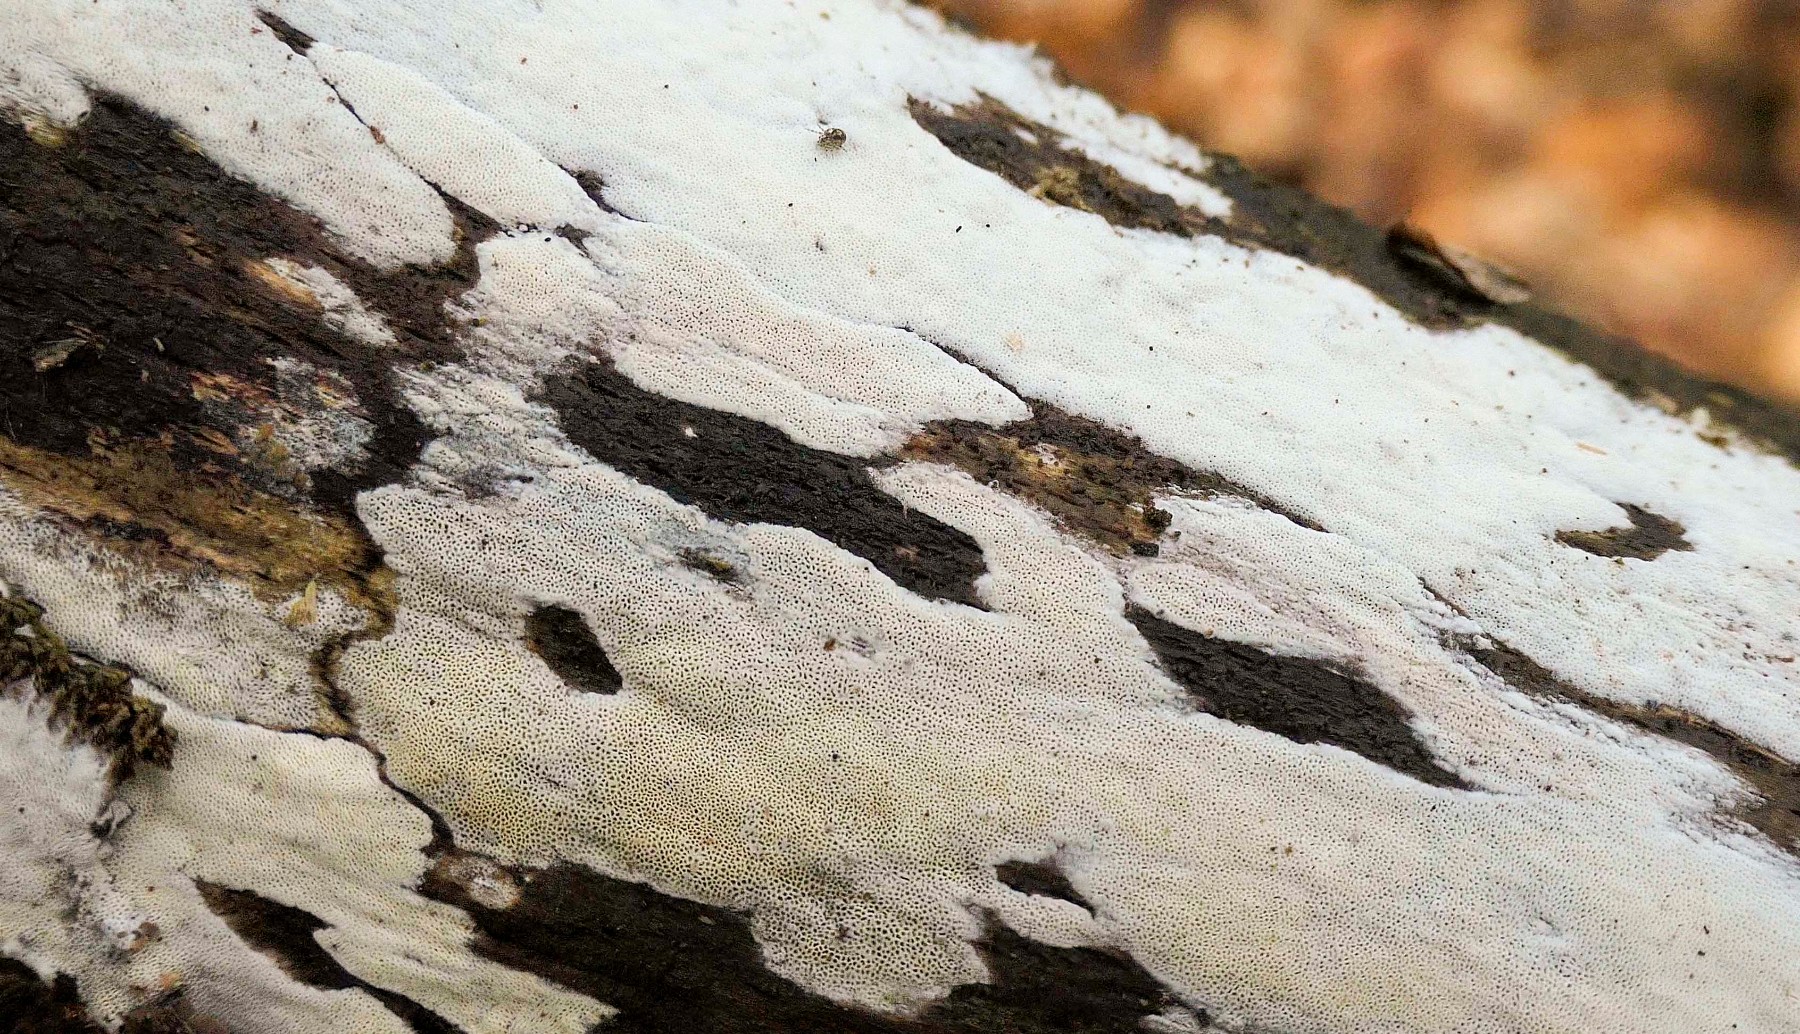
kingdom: Fungi
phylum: Basidiomycota
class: Agaricomycetes
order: Hymenochaetales
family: Rickenellaceae
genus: Sidera
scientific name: Sidera vulgaris
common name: fin flødeporesvamp
